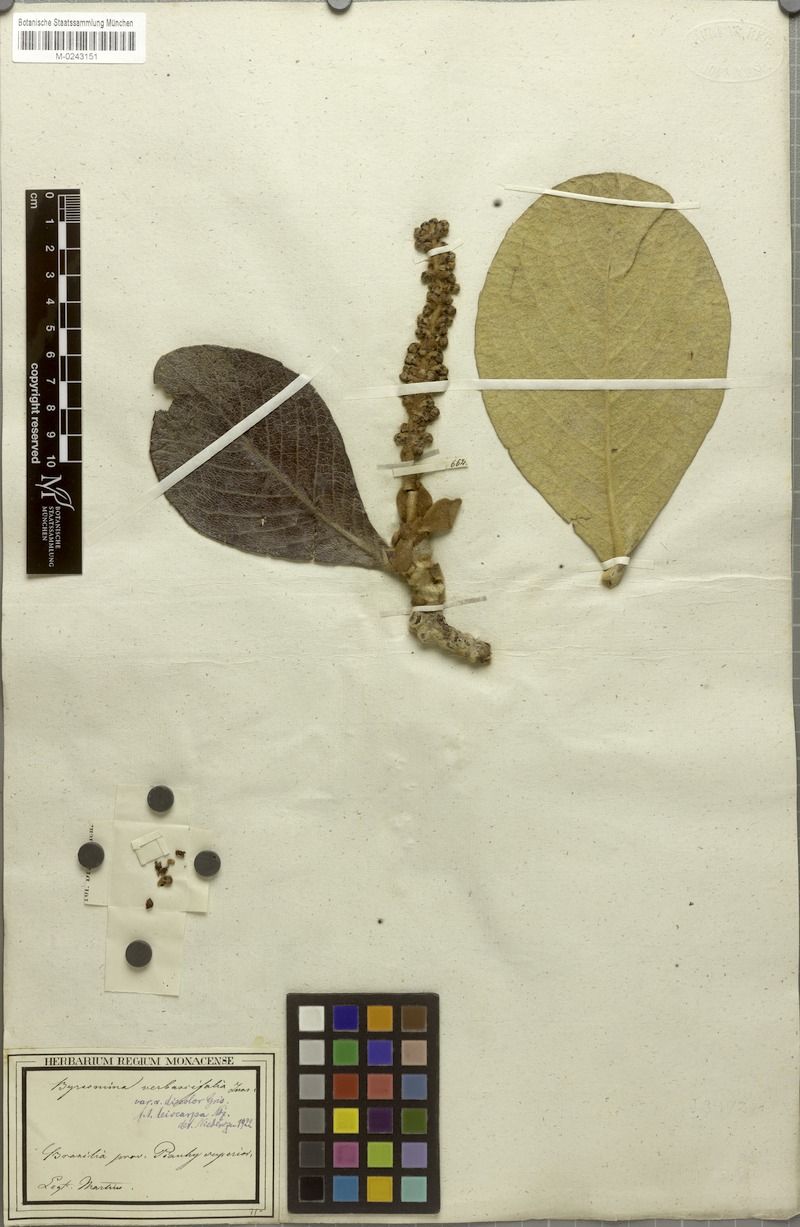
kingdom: Plantae
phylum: Tracheophyta
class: Magnoliopsida
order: Malpighiales
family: Malpighiaceae
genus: Byrsonima
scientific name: Byrsonima verbascifolia
